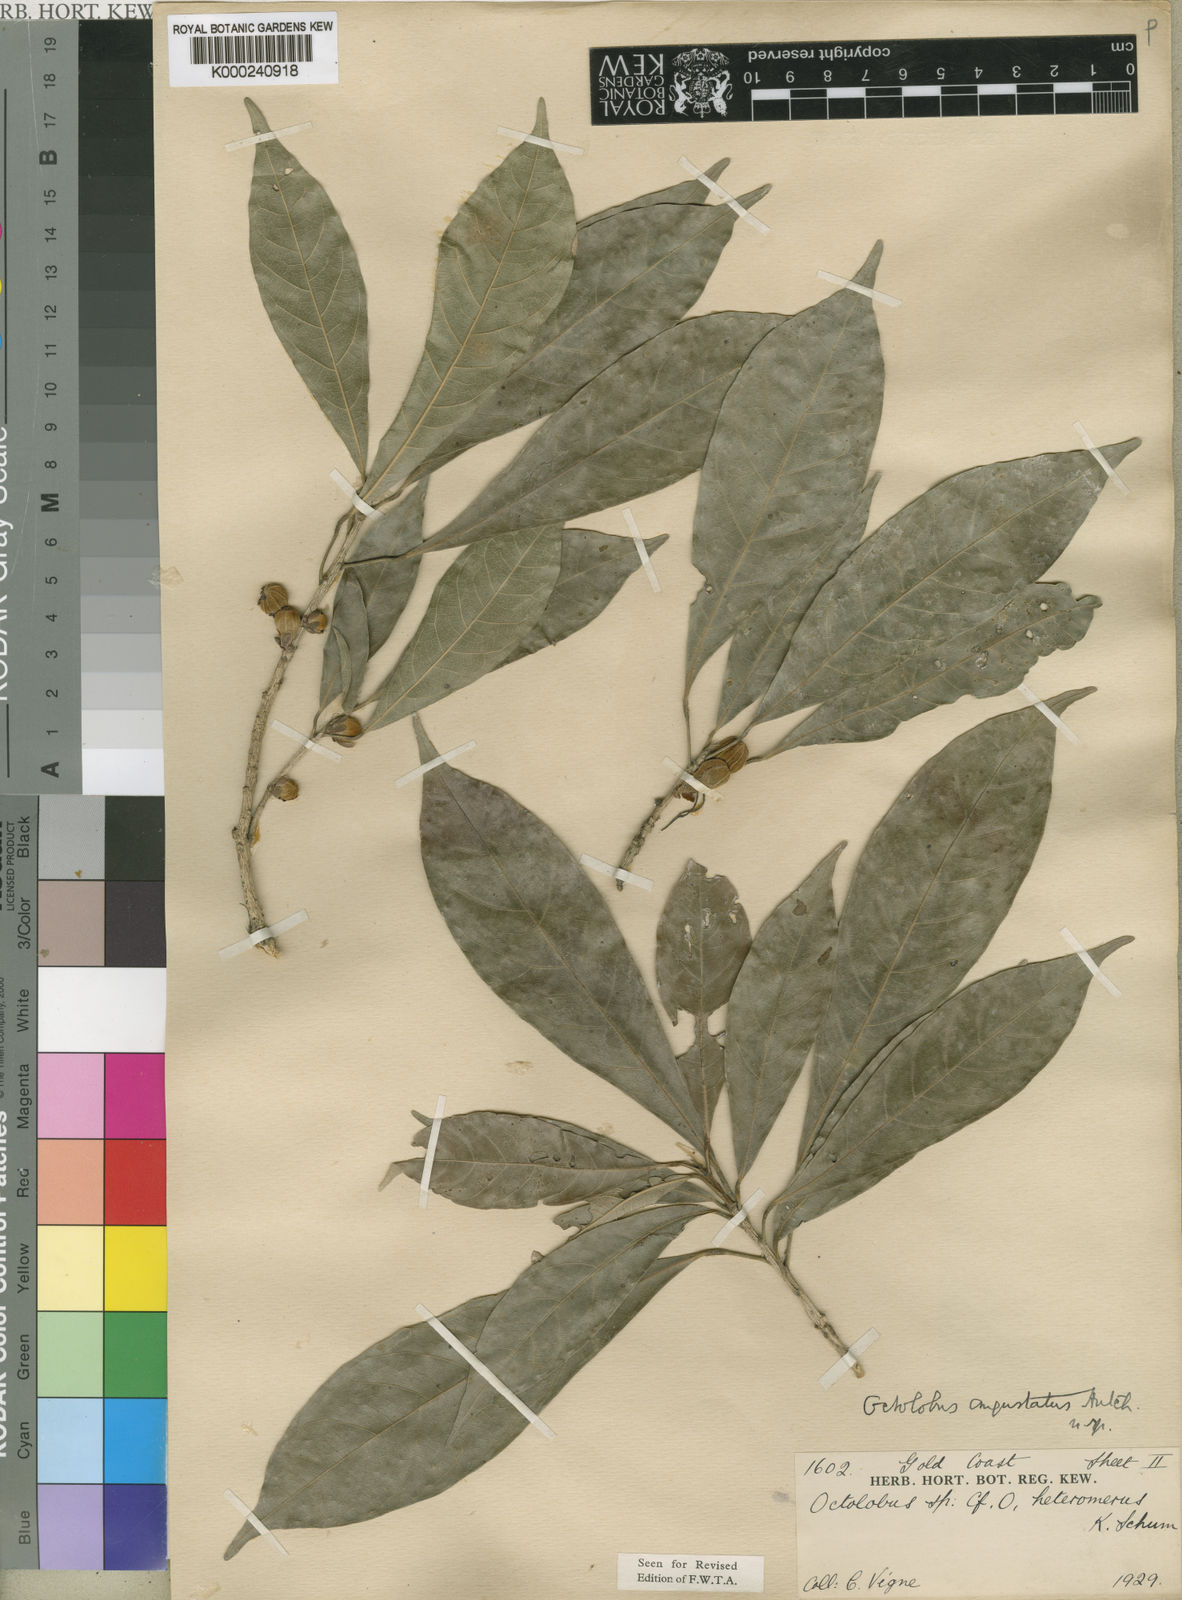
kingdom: Plantae
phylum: Tracheophyta
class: Magnoliopsida
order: Malvales
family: Malvaceae
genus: Octolobus
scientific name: Octolobus spectabilis
